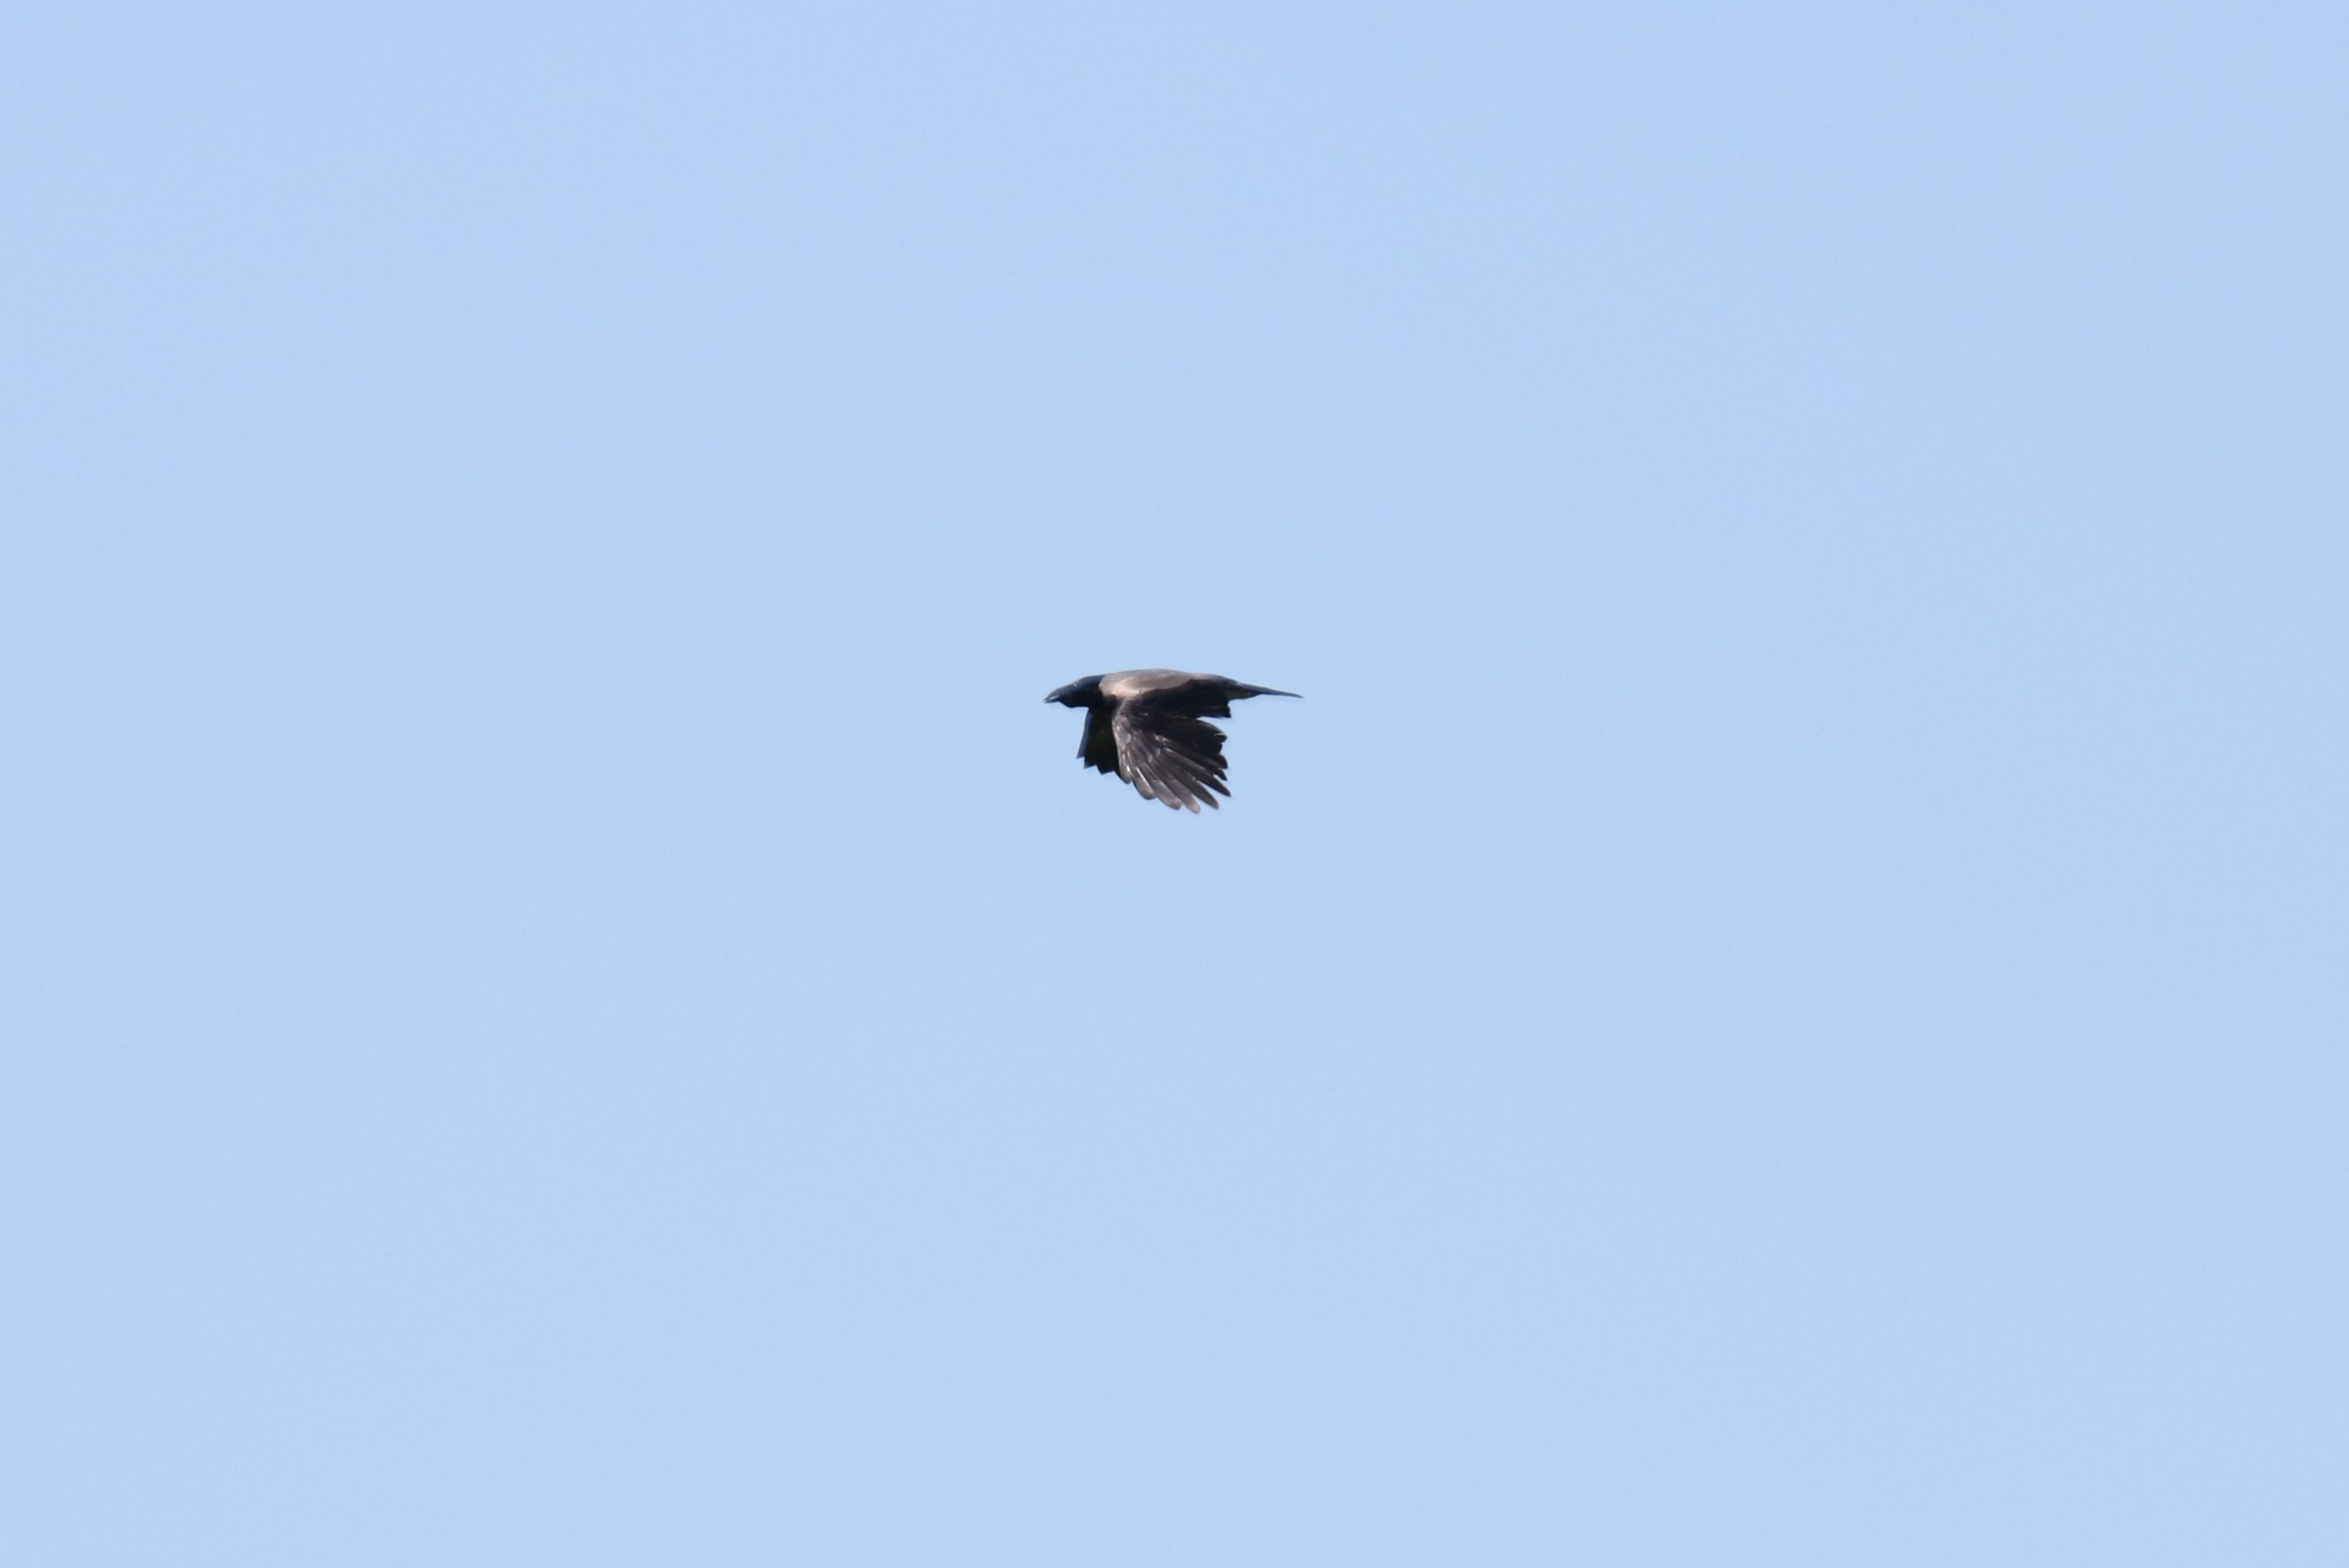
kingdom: Animalia
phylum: Chordata
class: Aves
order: Passeriformes
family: Corvidae
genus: Corvus
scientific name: Corvus cornix
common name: Gråkrage
